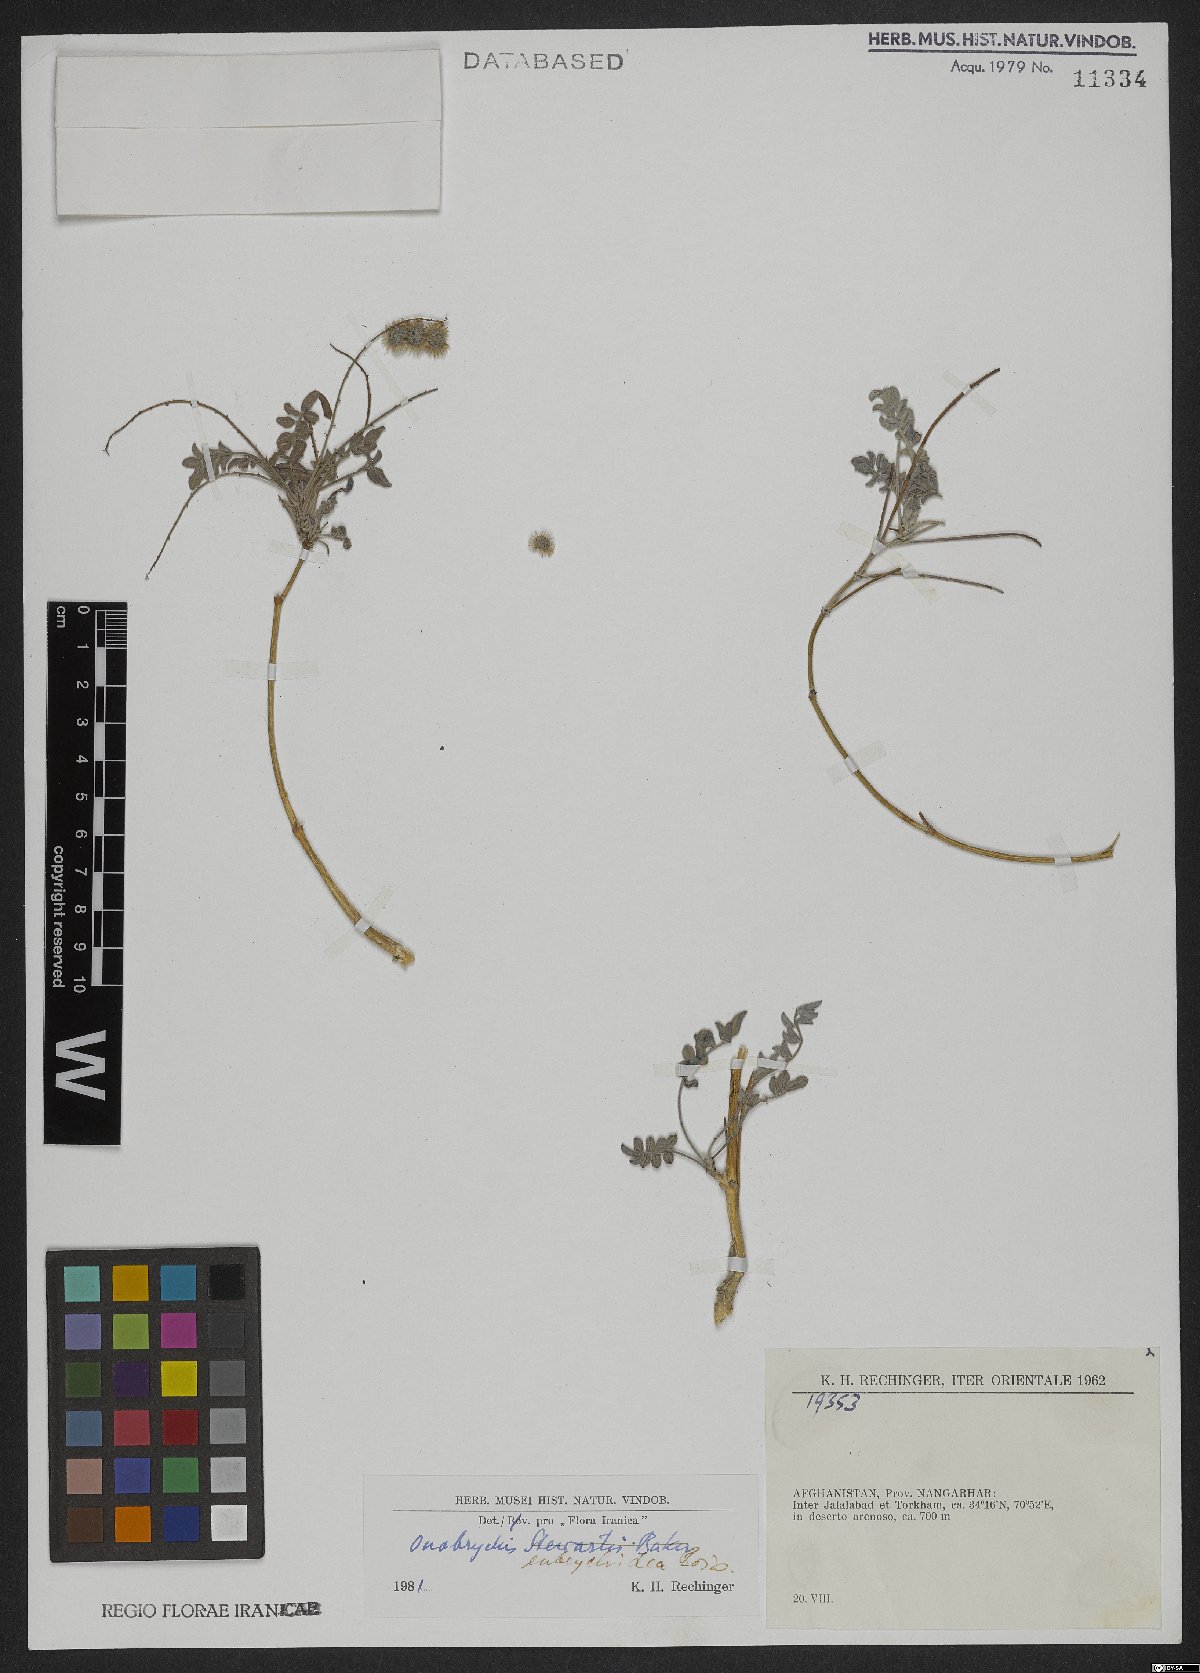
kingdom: Plantae
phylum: Tracheophyta
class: Magnoliopsida
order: Fabales
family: Fabaceae
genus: Onobrychis
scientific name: Onobrychis eubrychidea
